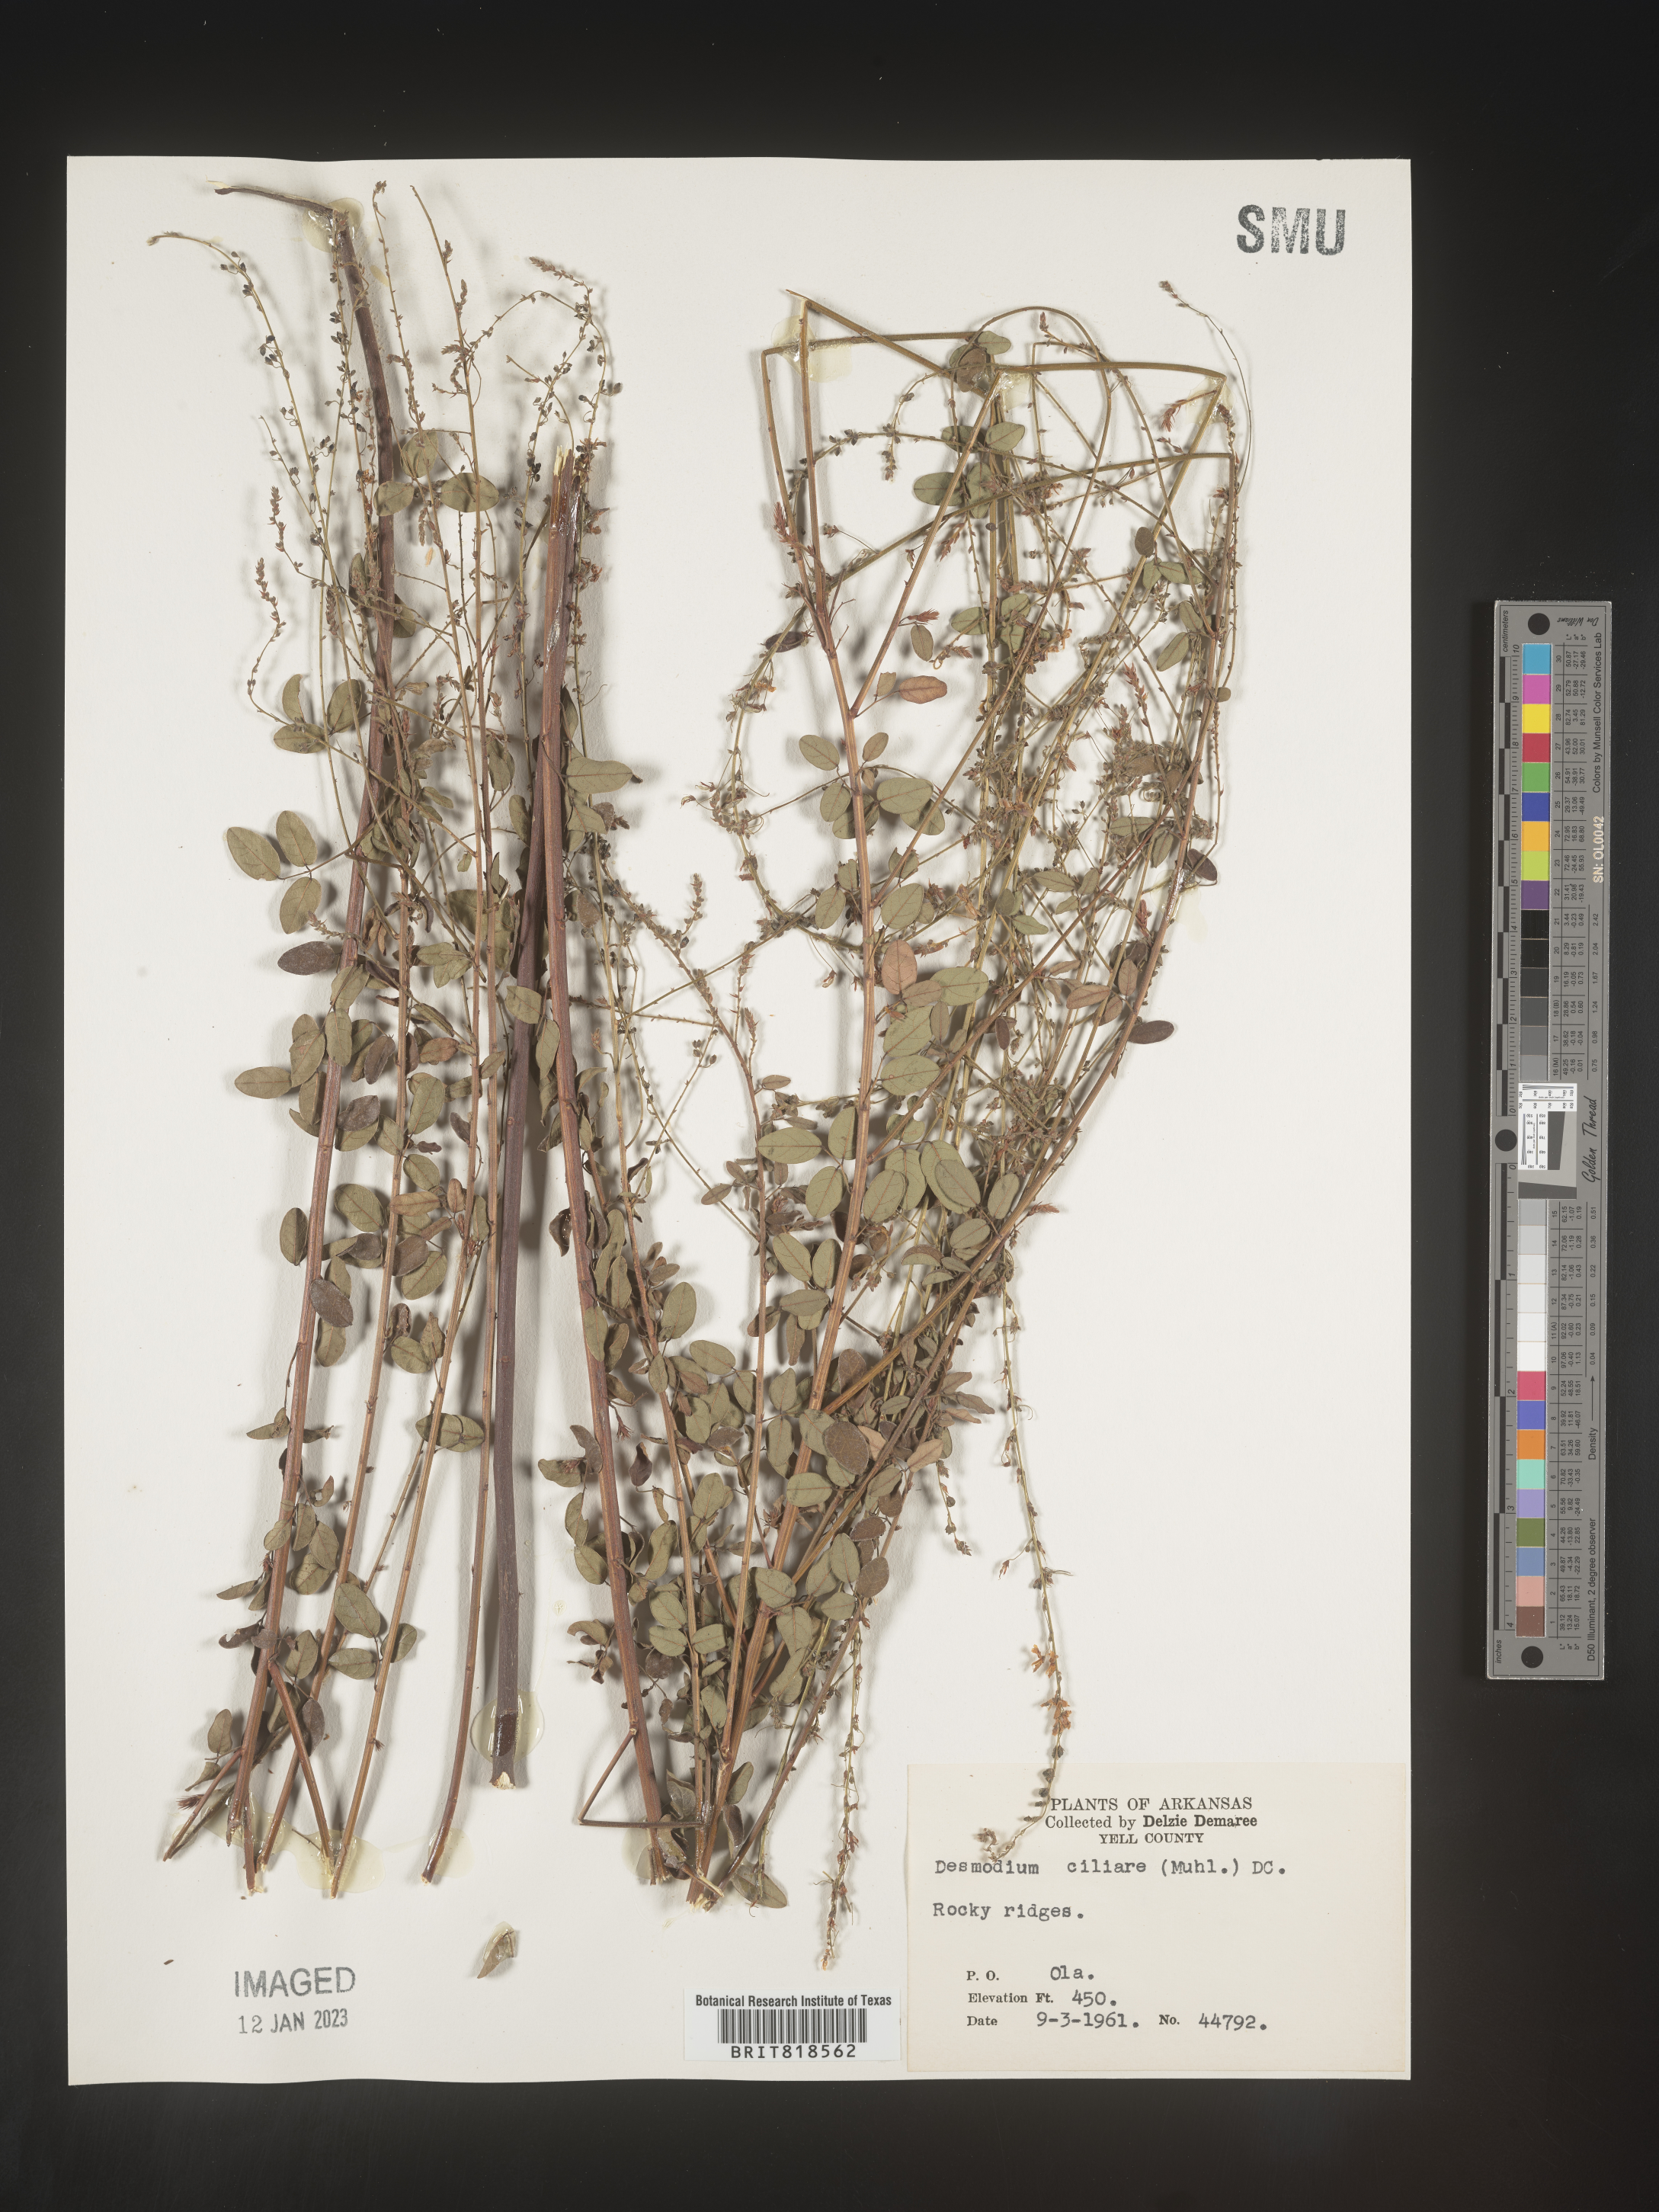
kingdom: Plantae
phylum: Tracheophyta
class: Magnoliopsida
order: Fabales
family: Fabaceae
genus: Desmodium
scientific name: Desmodium ciliare
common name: Hairy small-leaf ticktrefoil
